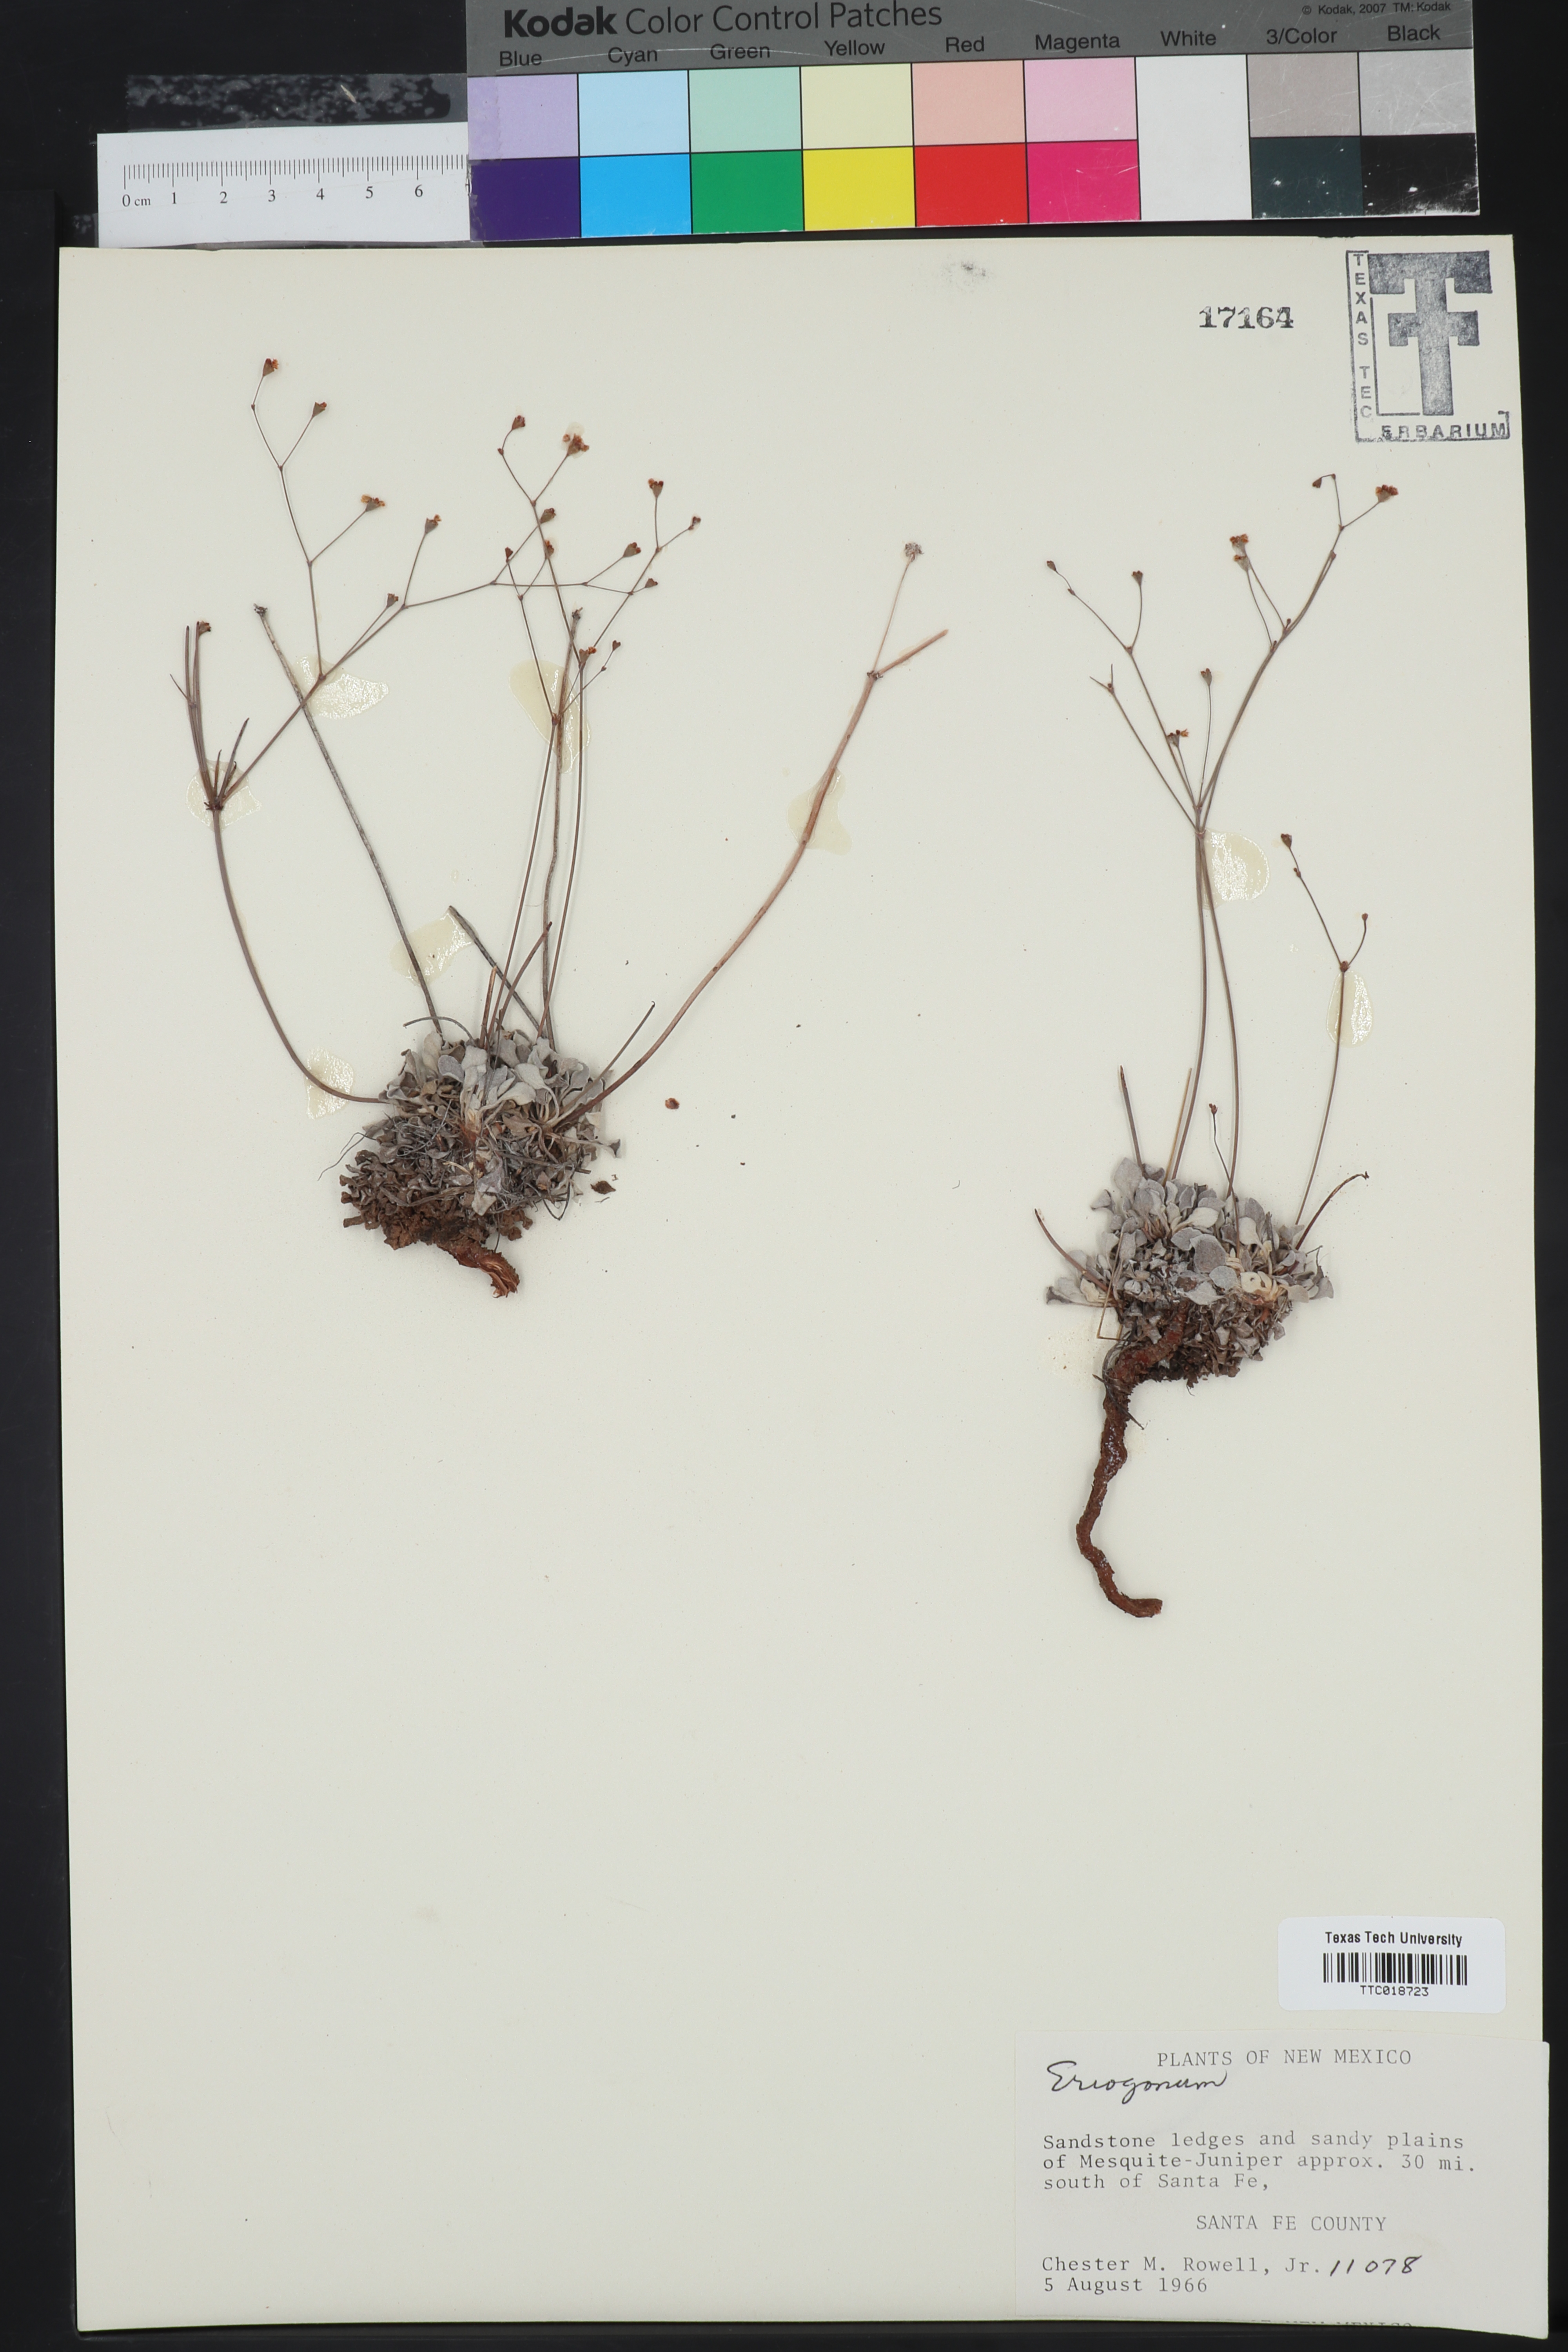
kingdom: Plantae
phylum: Tracheophyta
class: Magnoliopsida
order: Caryophyllales
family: Polygonaceae
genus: Eriogonum
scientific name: Eriogonum
